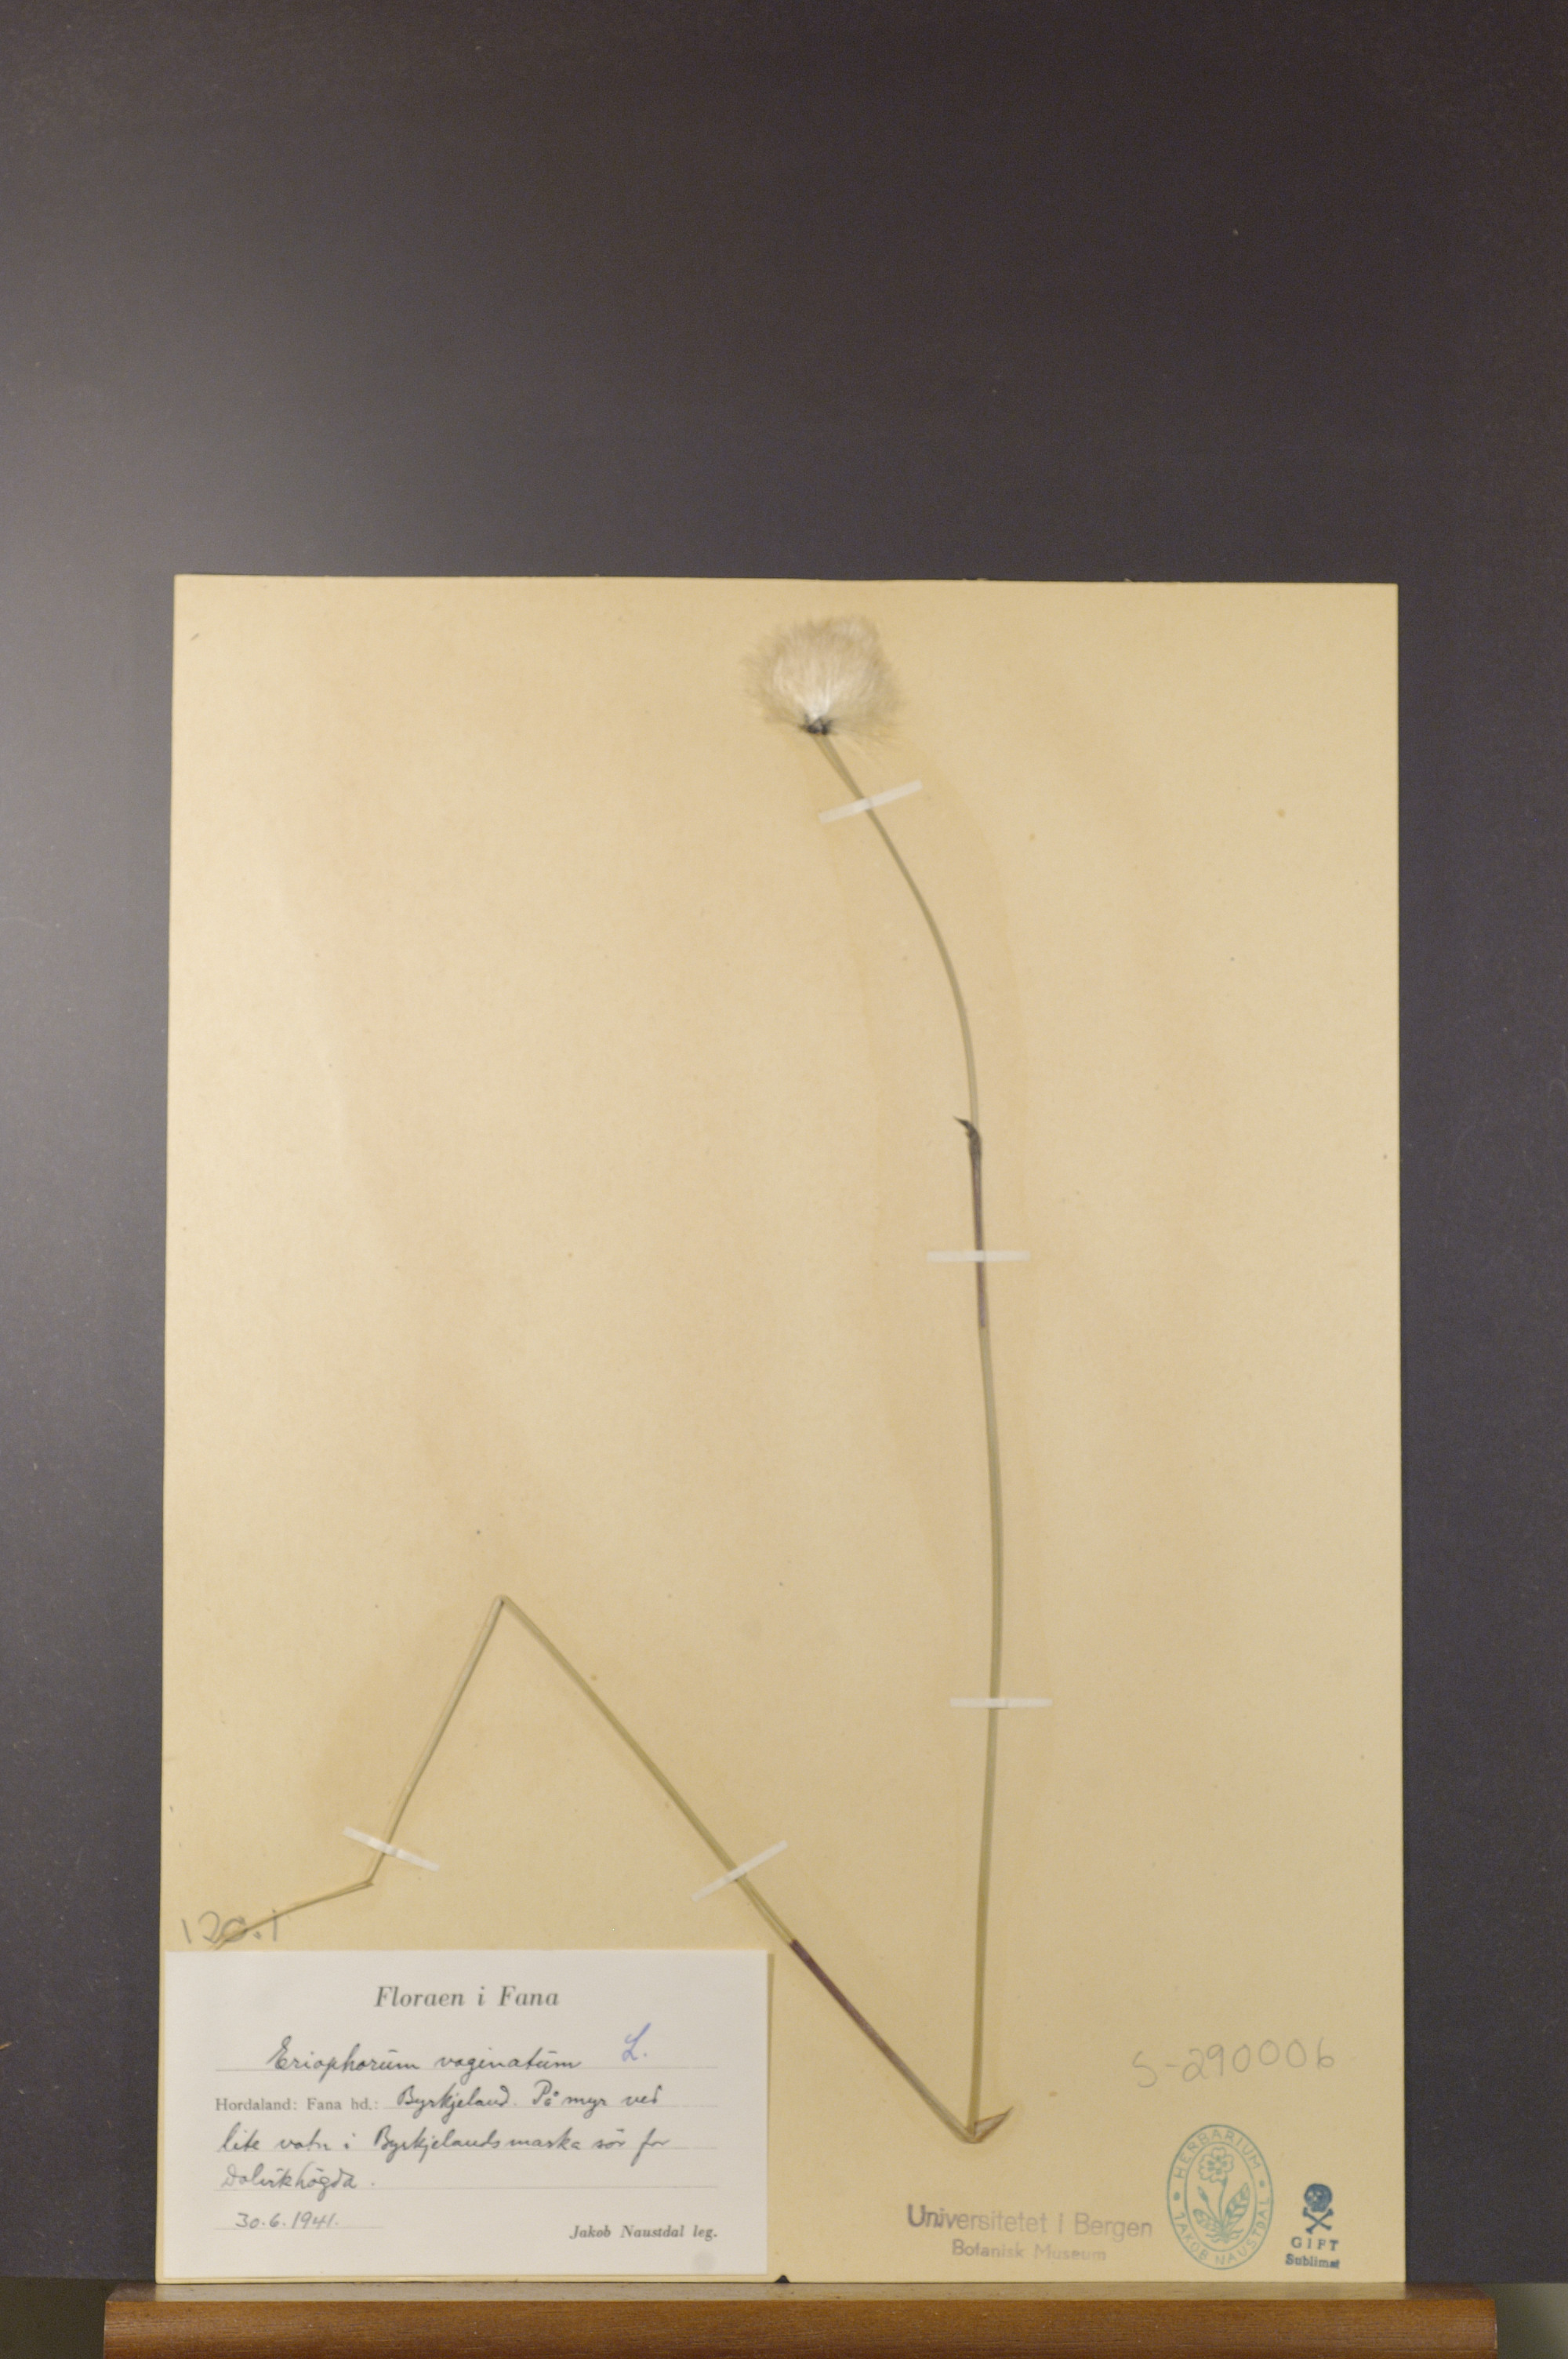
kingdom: Plantae
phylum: Tracheophyta
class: Liliopsida
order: Poales
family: Cyperaceae
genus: Eriophorum
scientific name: Eriophorum vaginatum
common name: Hare's-tail cottongrass
